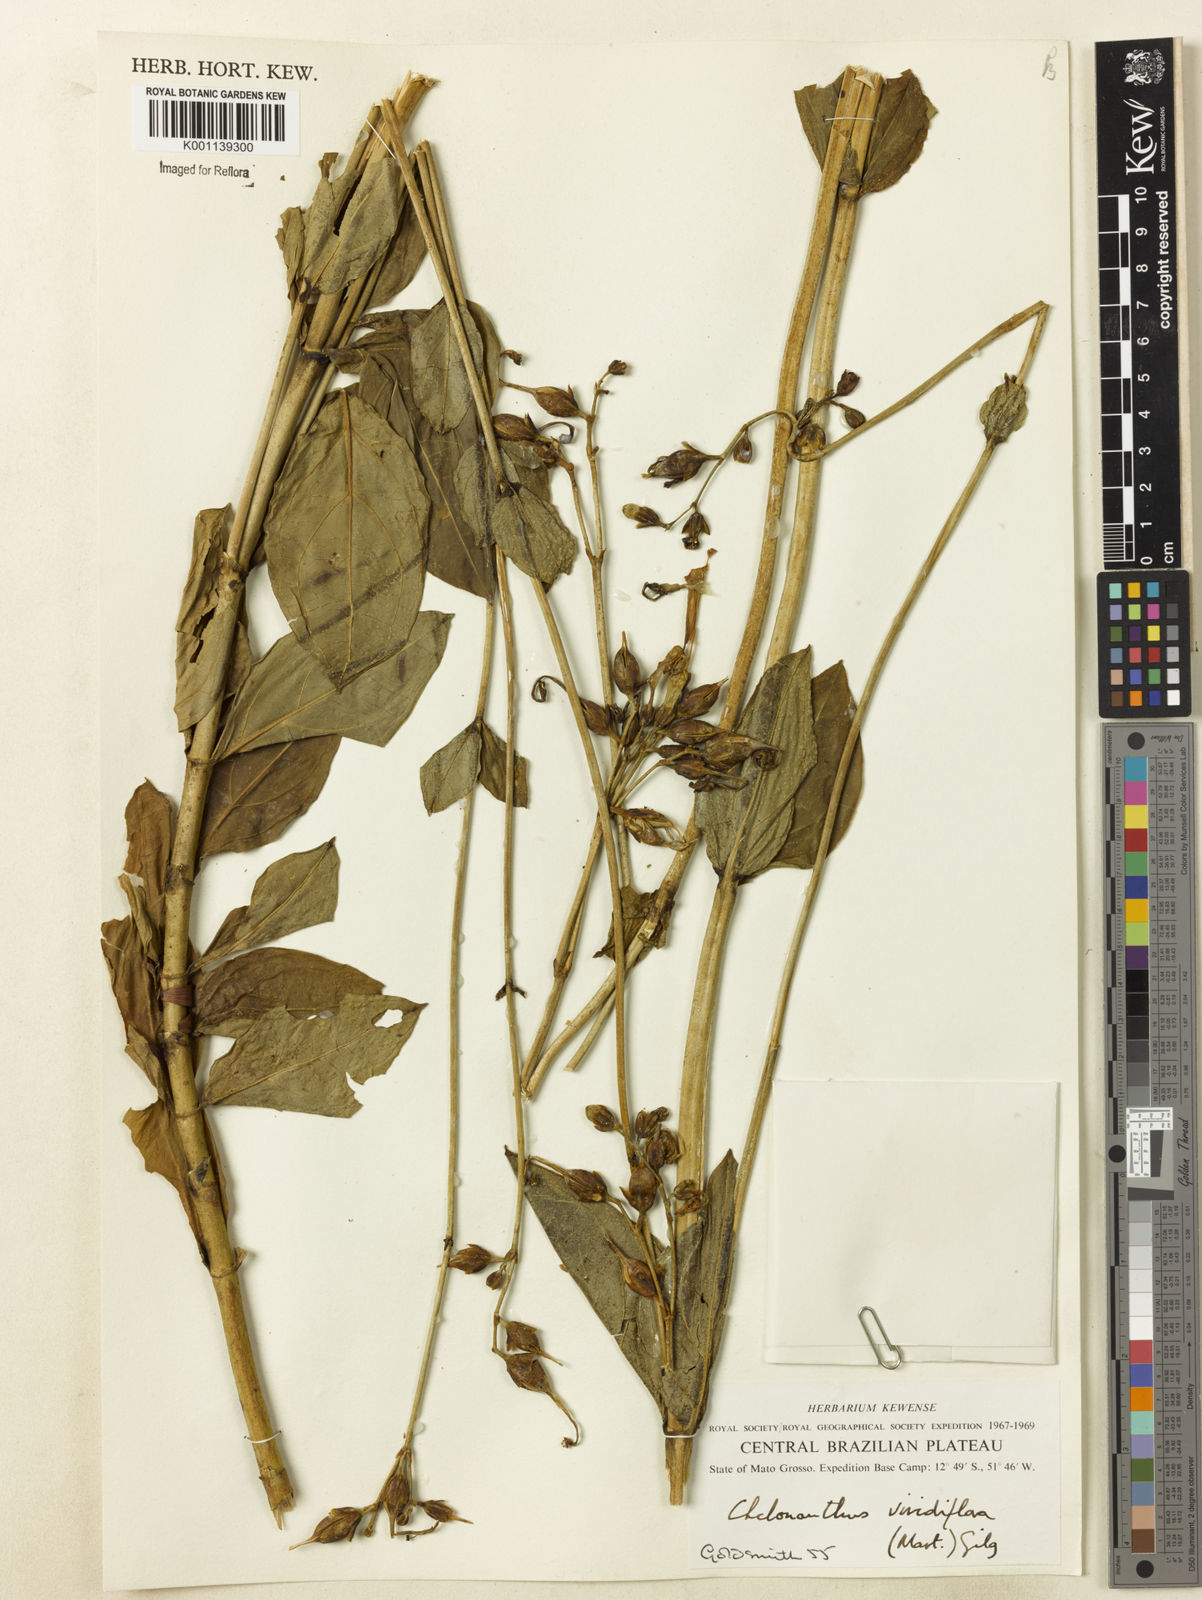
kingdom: Plantae
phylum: Tracheophyta
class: Magnoliopsida
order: Gentianales
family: Gentianaceae
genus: Chelonanthus
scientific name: Chelonanthus viridiflorus
